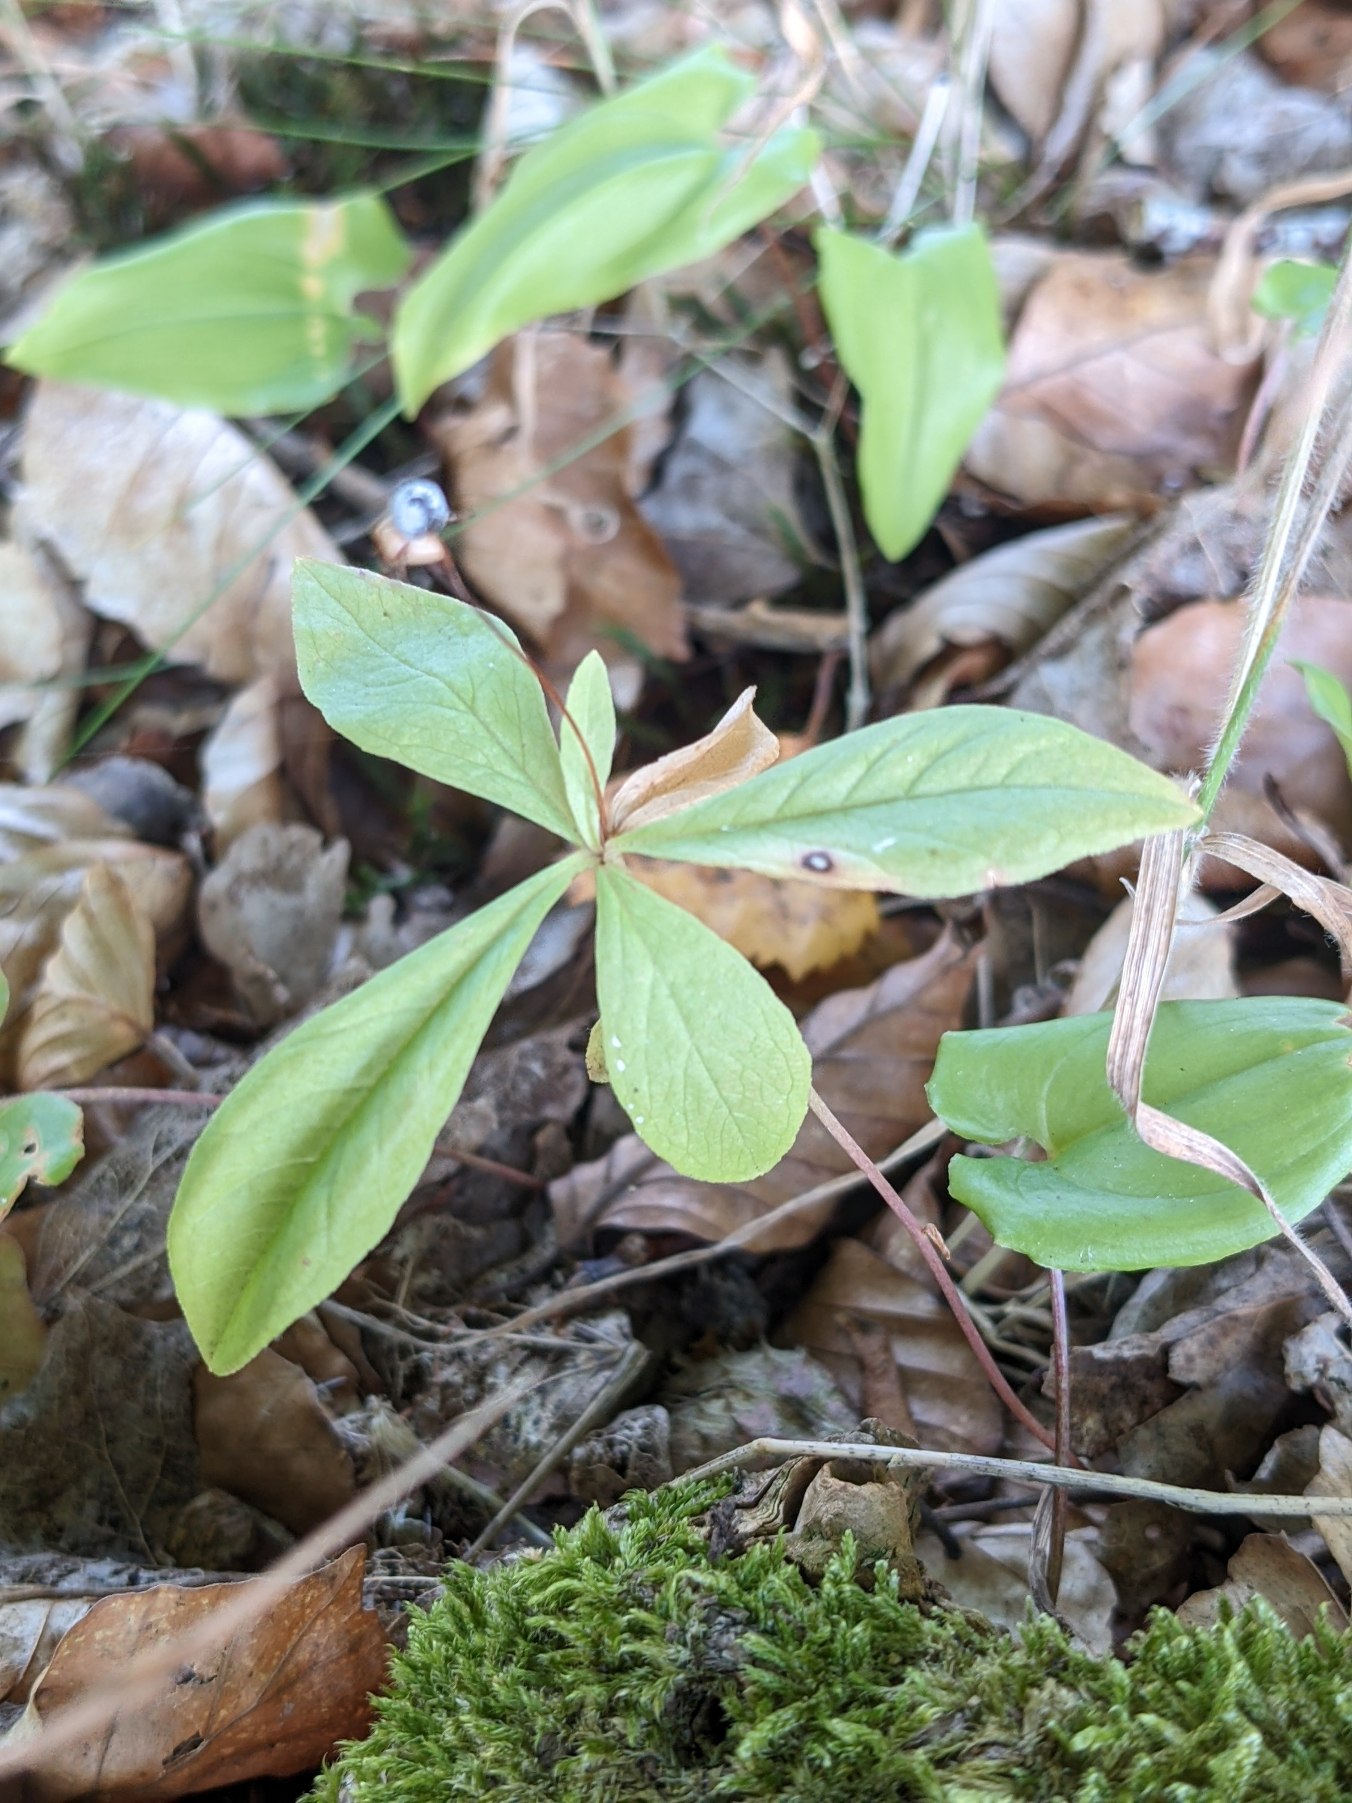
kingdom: Plantae
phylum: Tracheophyta
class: Magnoliopsida
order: Ericales
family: Primulaceae
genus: Lysimachia
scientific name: Lysimachia europaea
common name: Skovstjerne
